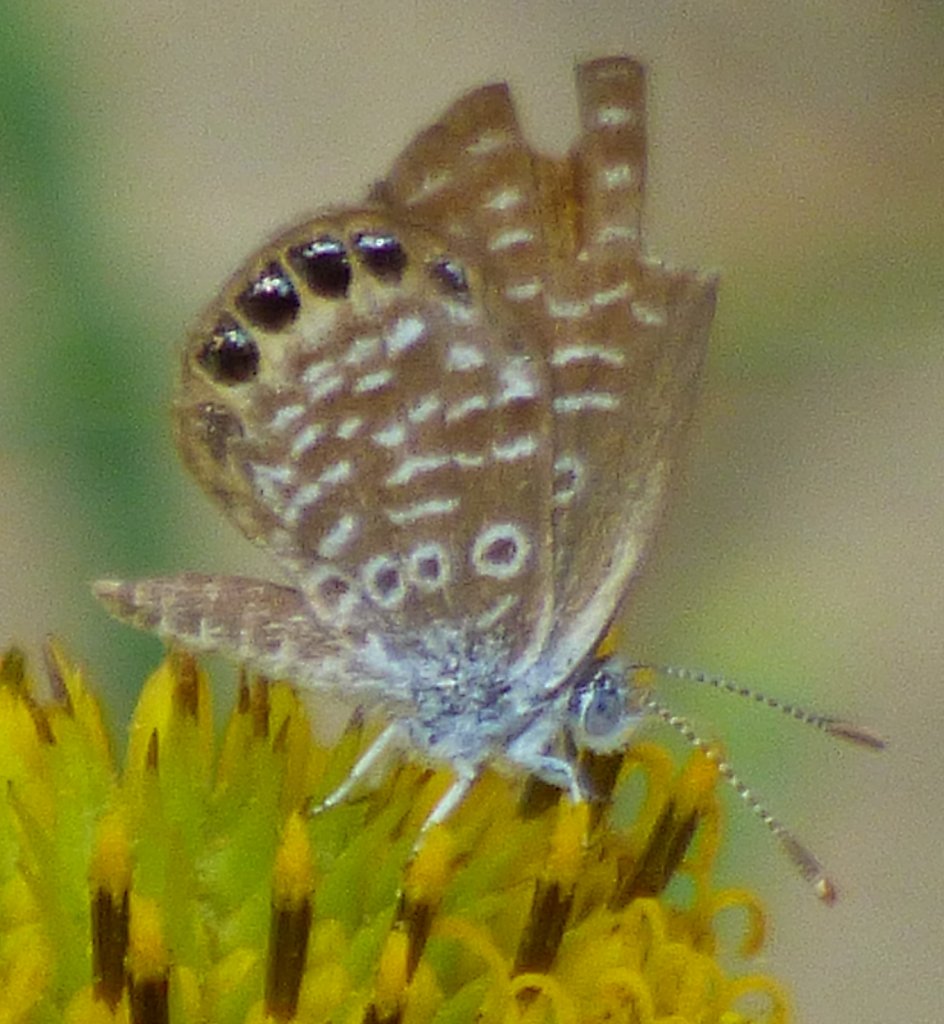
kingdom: Animalia
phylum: Arthropoda
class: Insecta
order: Lepidoptera
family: Lycaenidae
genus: Brephidium
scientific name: Brephidium isophthalma
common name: Eastern Pygmy-Blue
